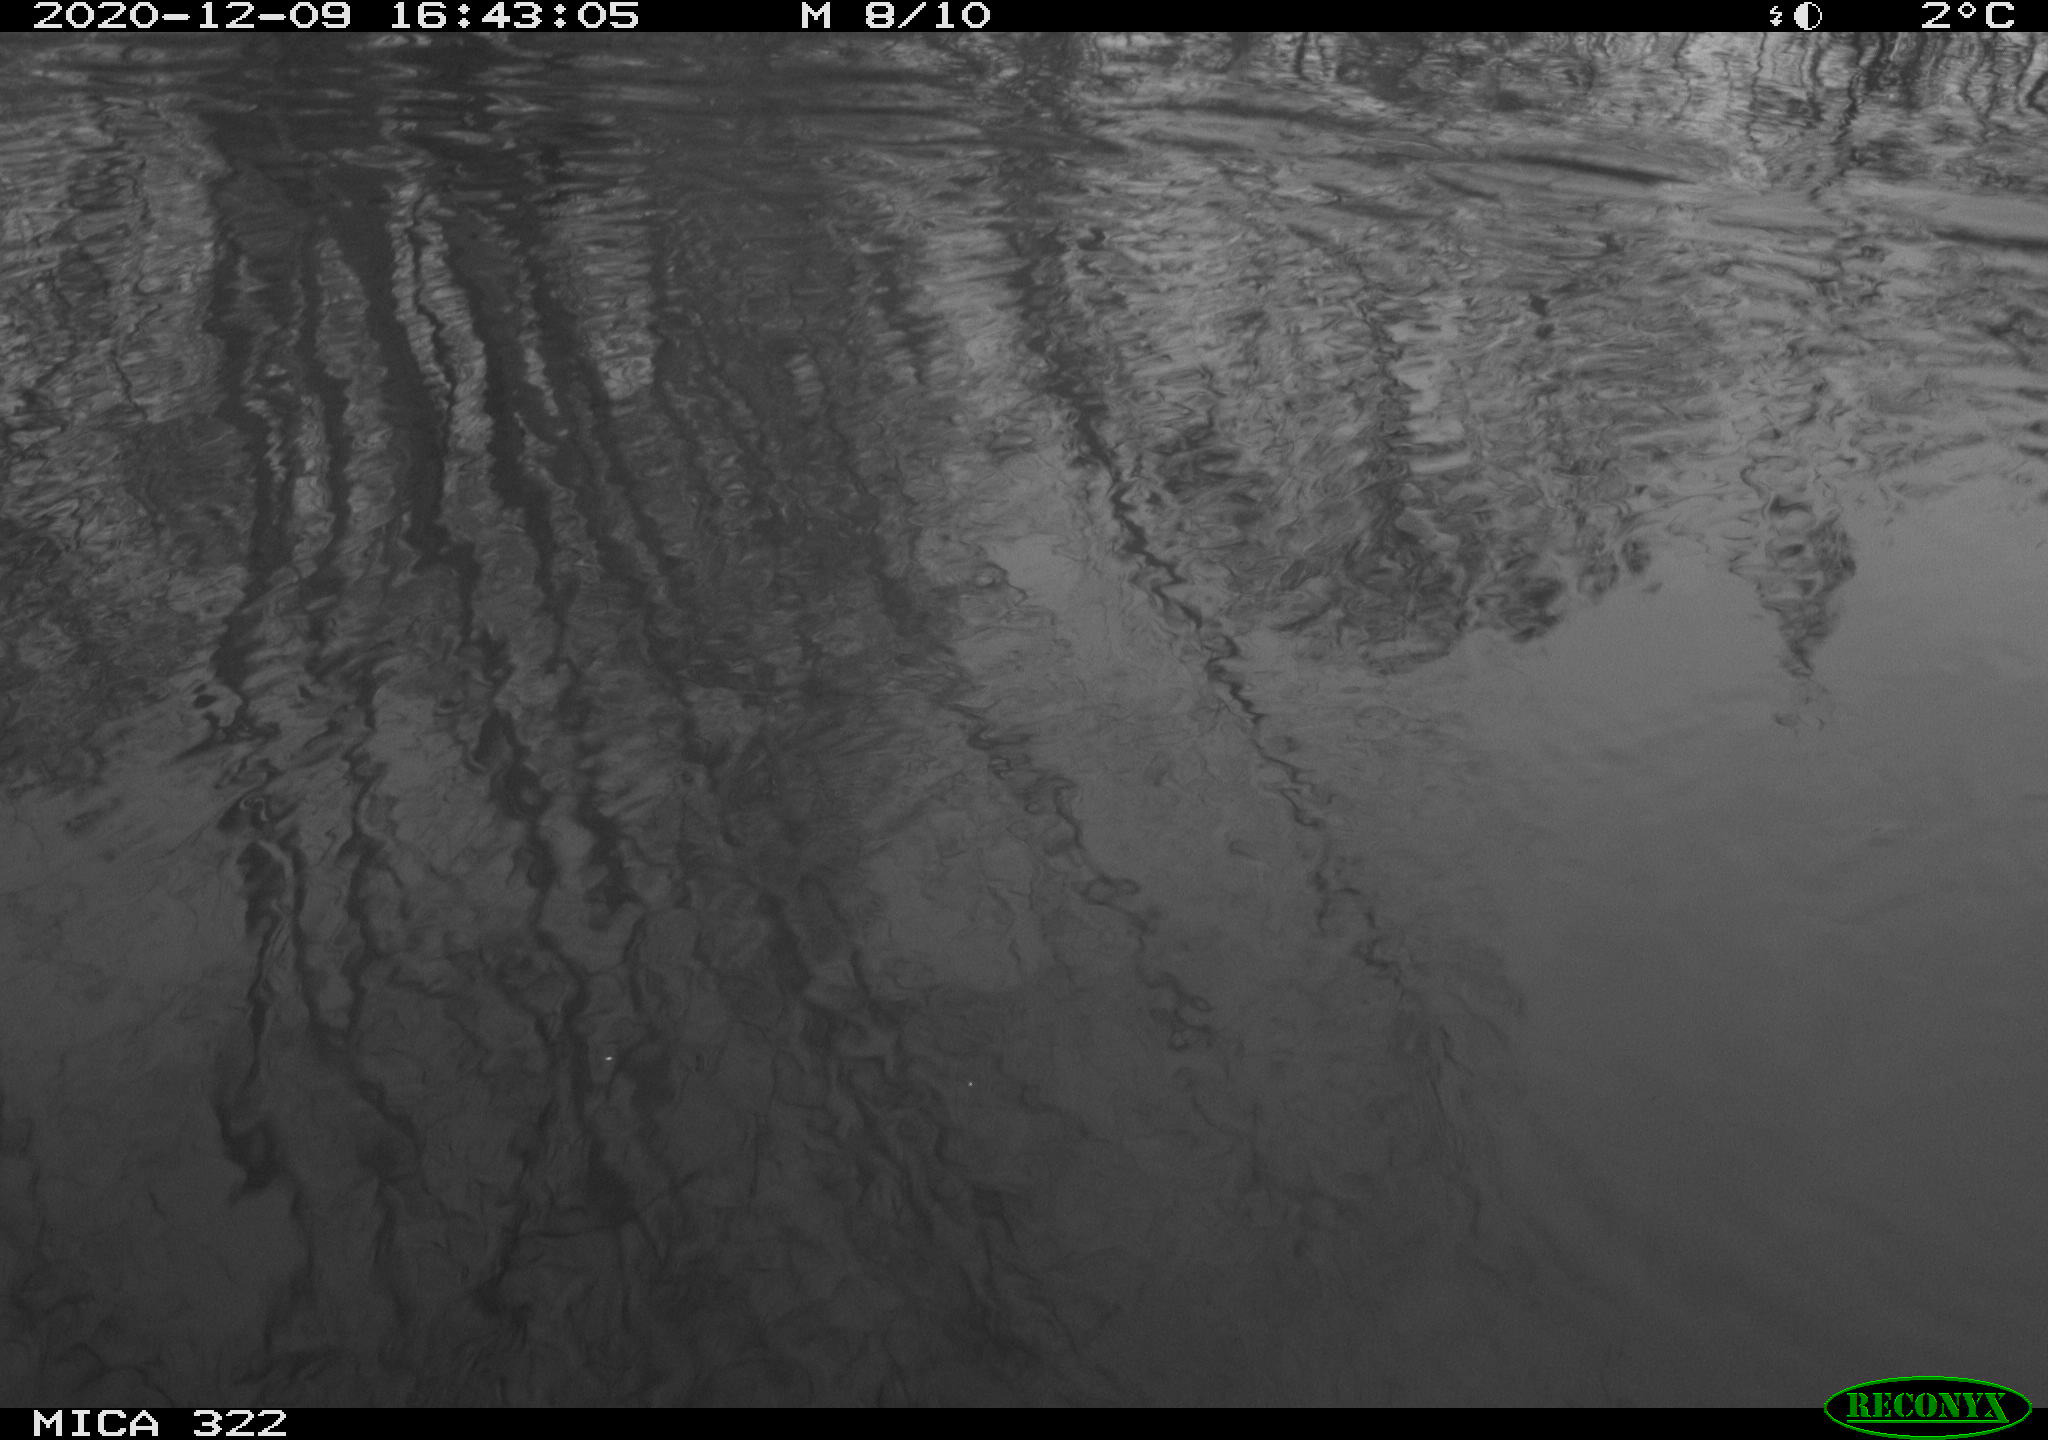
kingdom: Animalia
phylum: Chordata
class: Aves
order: Gruiformes
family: Rallidae
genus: Gallinula
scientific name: Gallinula chloropus
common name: Common moorhen
